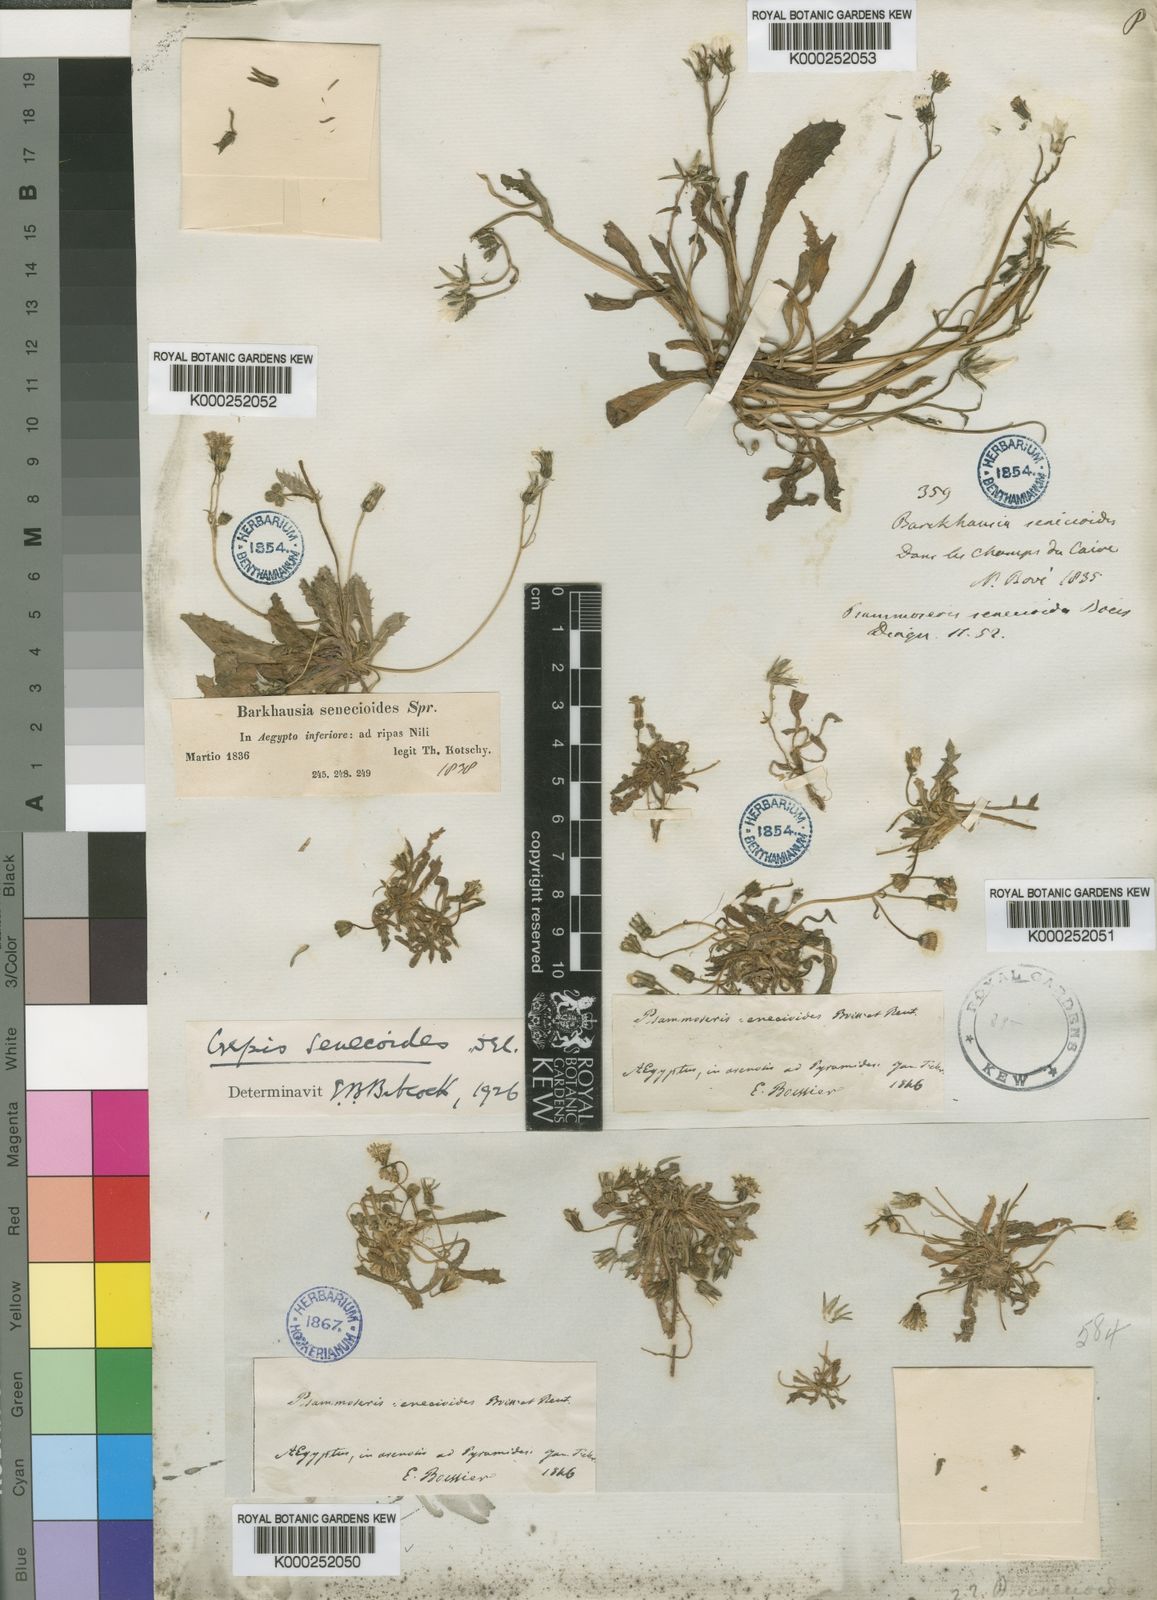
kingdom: Plantae
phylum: Tracheophyta
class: Magnoliopsida
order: Asterales
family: Asteraceae
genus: Crepis
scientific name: Crepis senecioides
